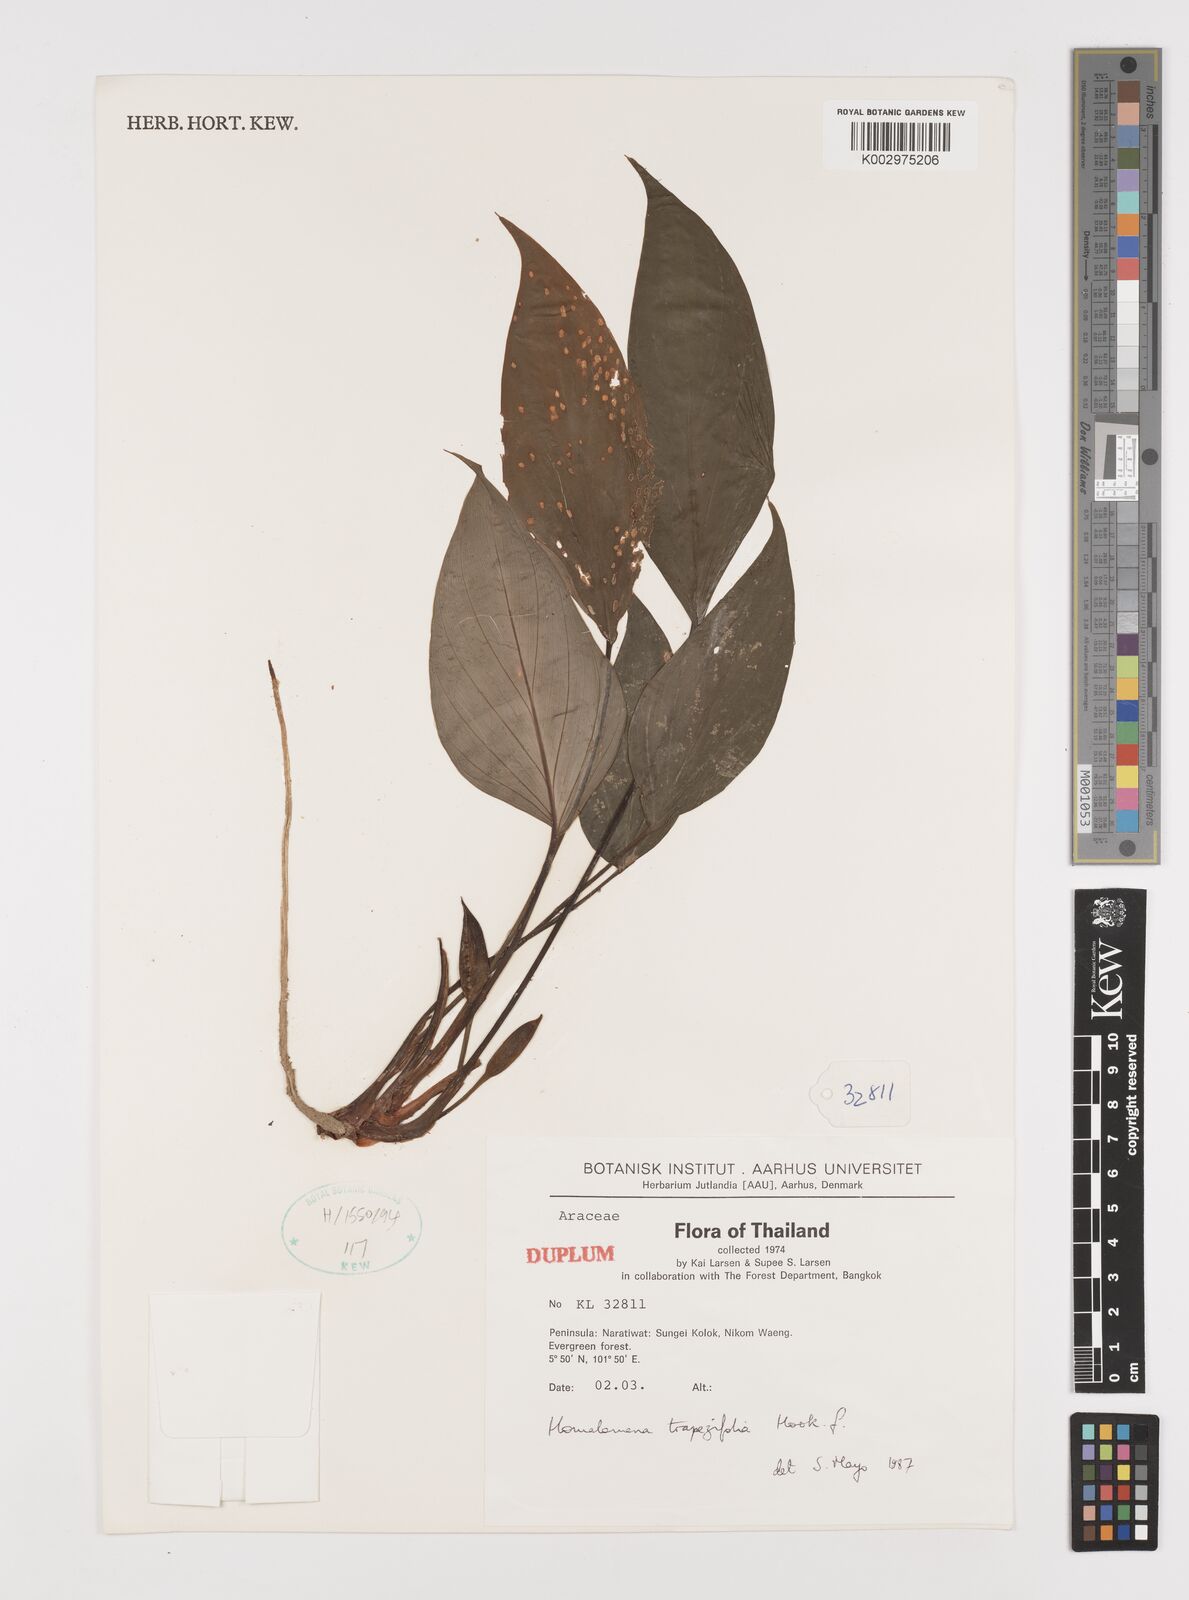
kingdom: Plantae
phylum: Tracheophyta
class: Liliopsida
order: Alismatales
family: Araceae
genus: Homalomena
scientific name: Homalomena griffithii
